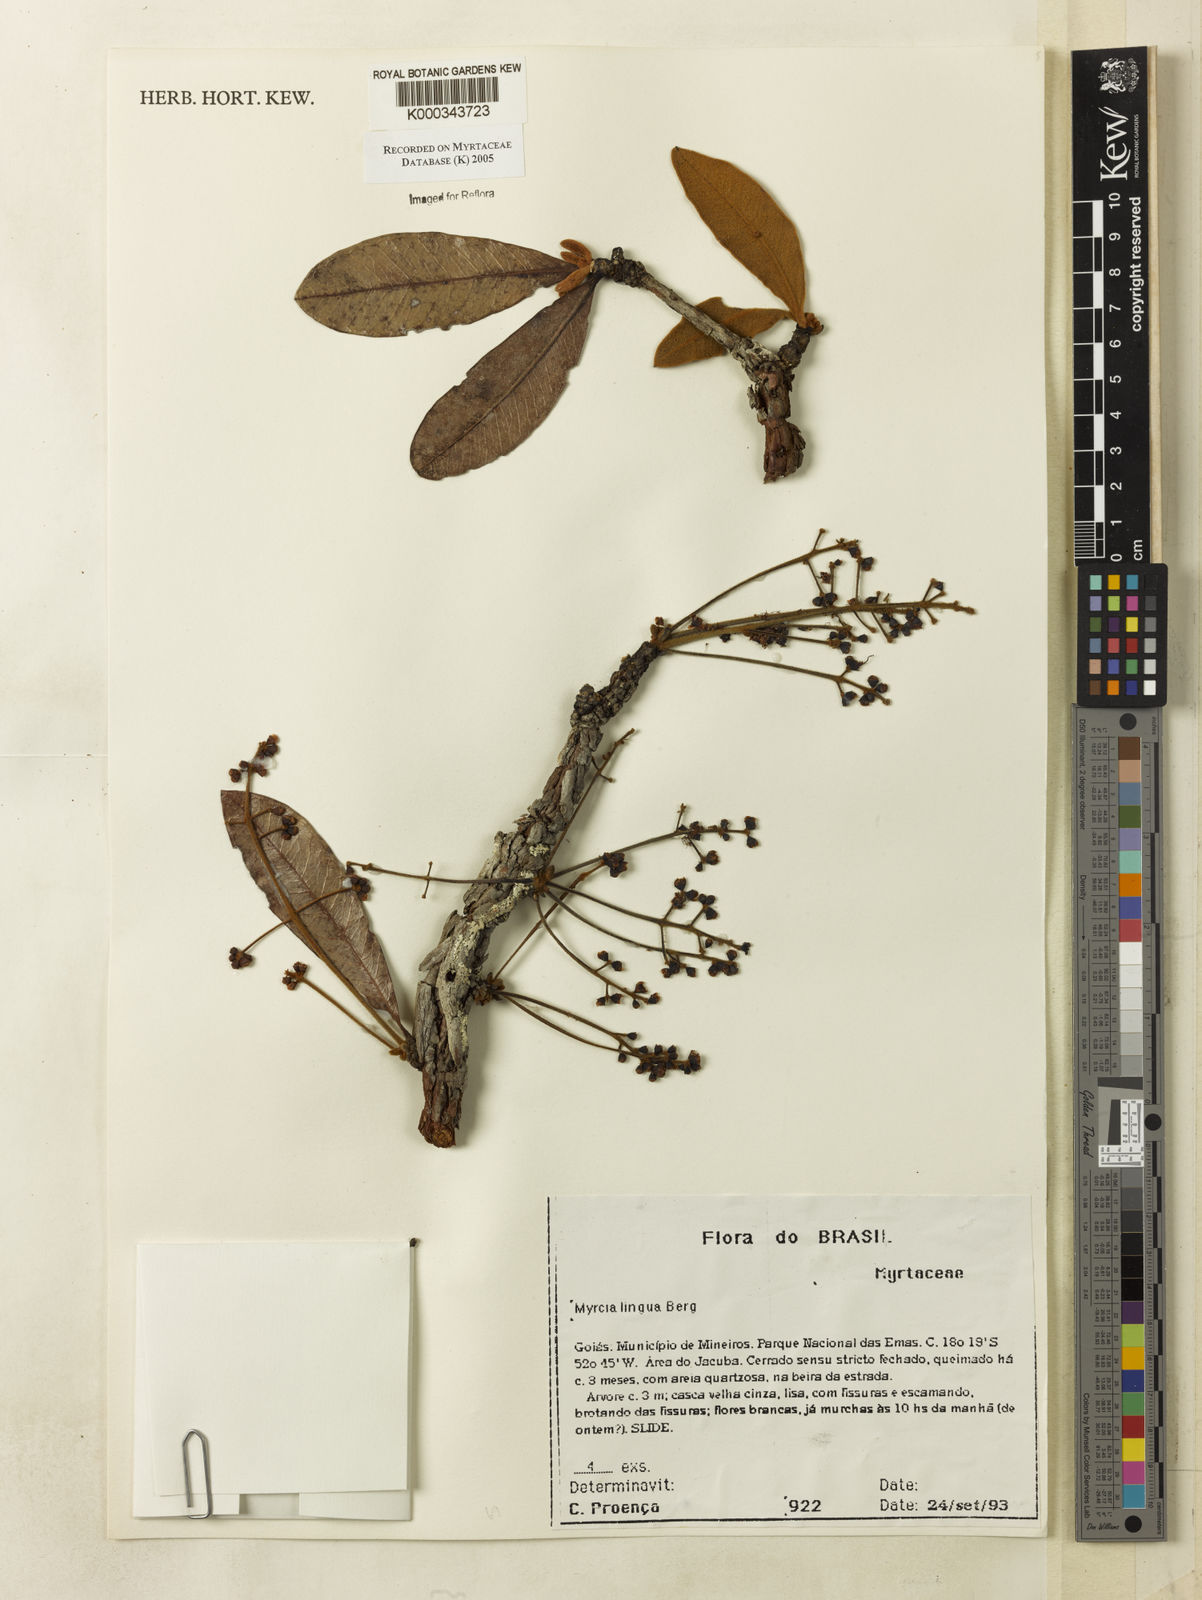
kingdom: Plantae
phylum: Tracheophyta
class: Magnoliopsida
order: Myrtales
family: Myrtaceae
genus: Myrcia
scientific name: Myrcia guianensis
